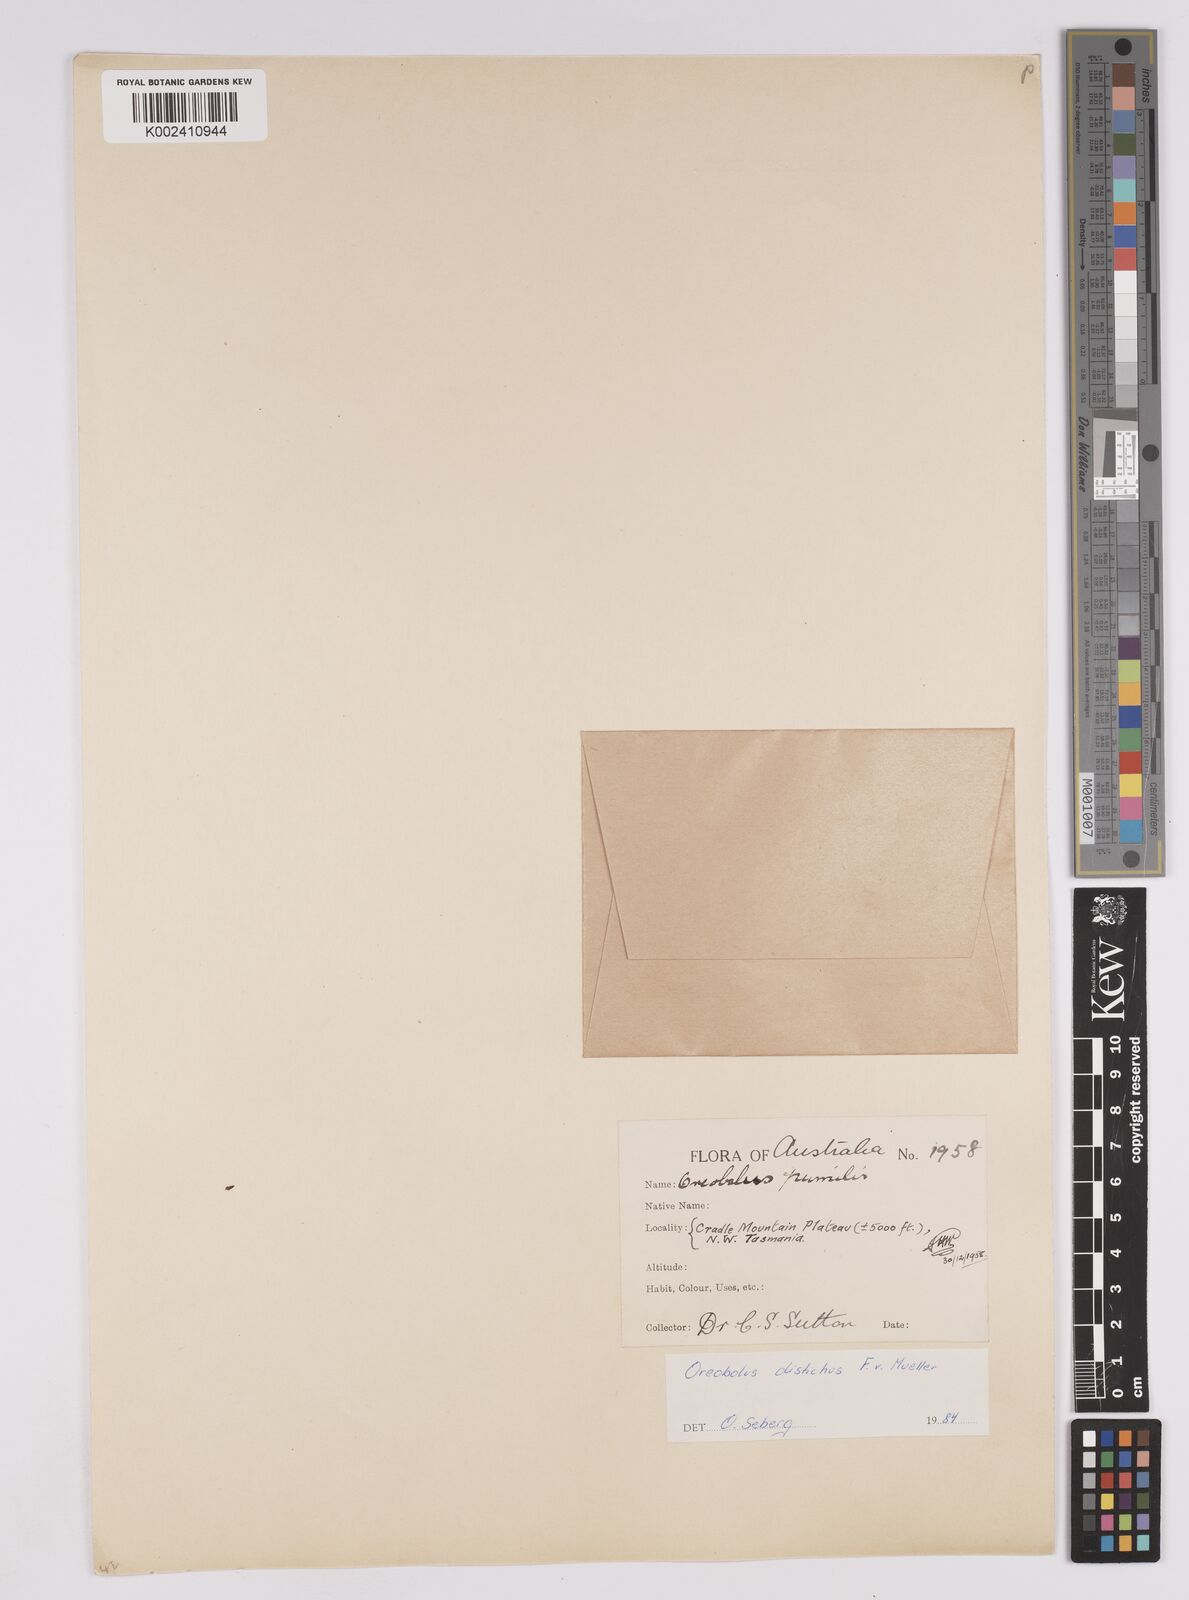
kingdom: Plantae
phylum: Tracheophyta
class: Liliopsida
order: Poales
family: Cyperaceae
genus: Oreobolus
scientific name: Oreobolus pumilio
